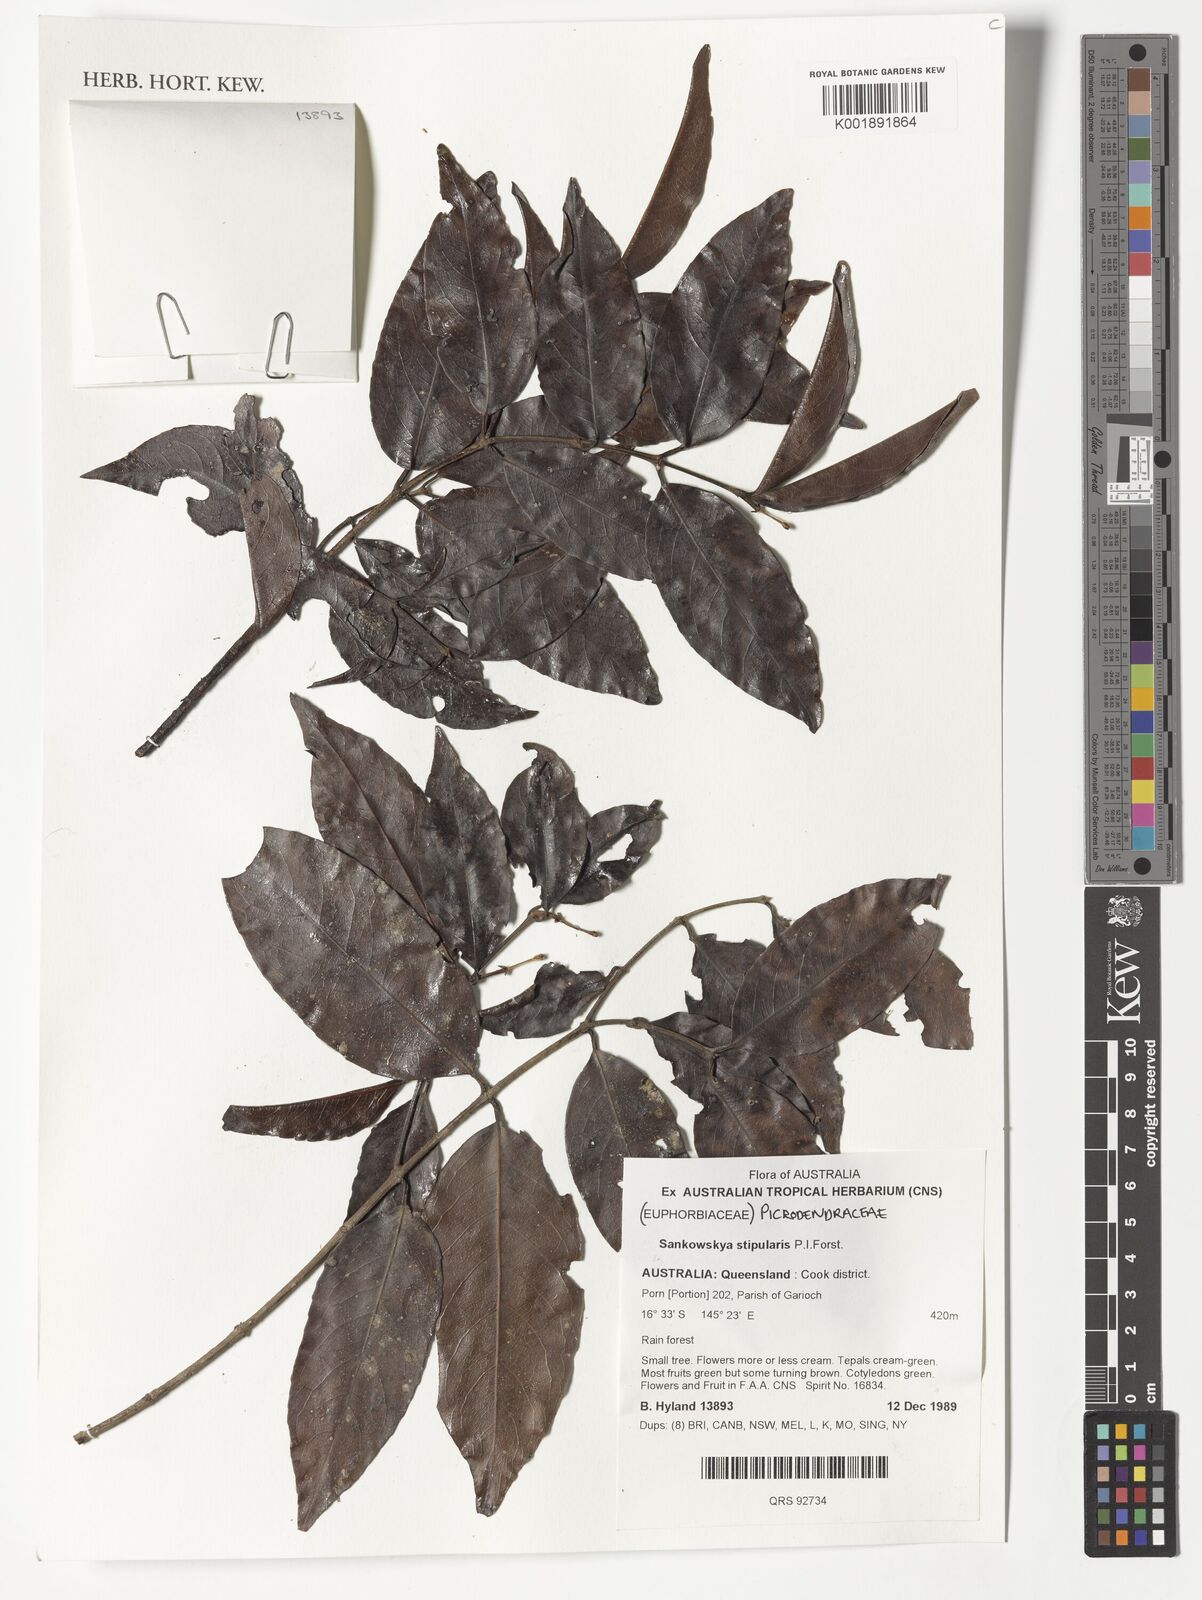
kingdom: Plantae
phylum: Tracheophyta
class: Magnoliopsida
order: Malpighiales
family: Picrodendraceae
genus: Sankowskya
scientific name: Sankowskya stipularis
